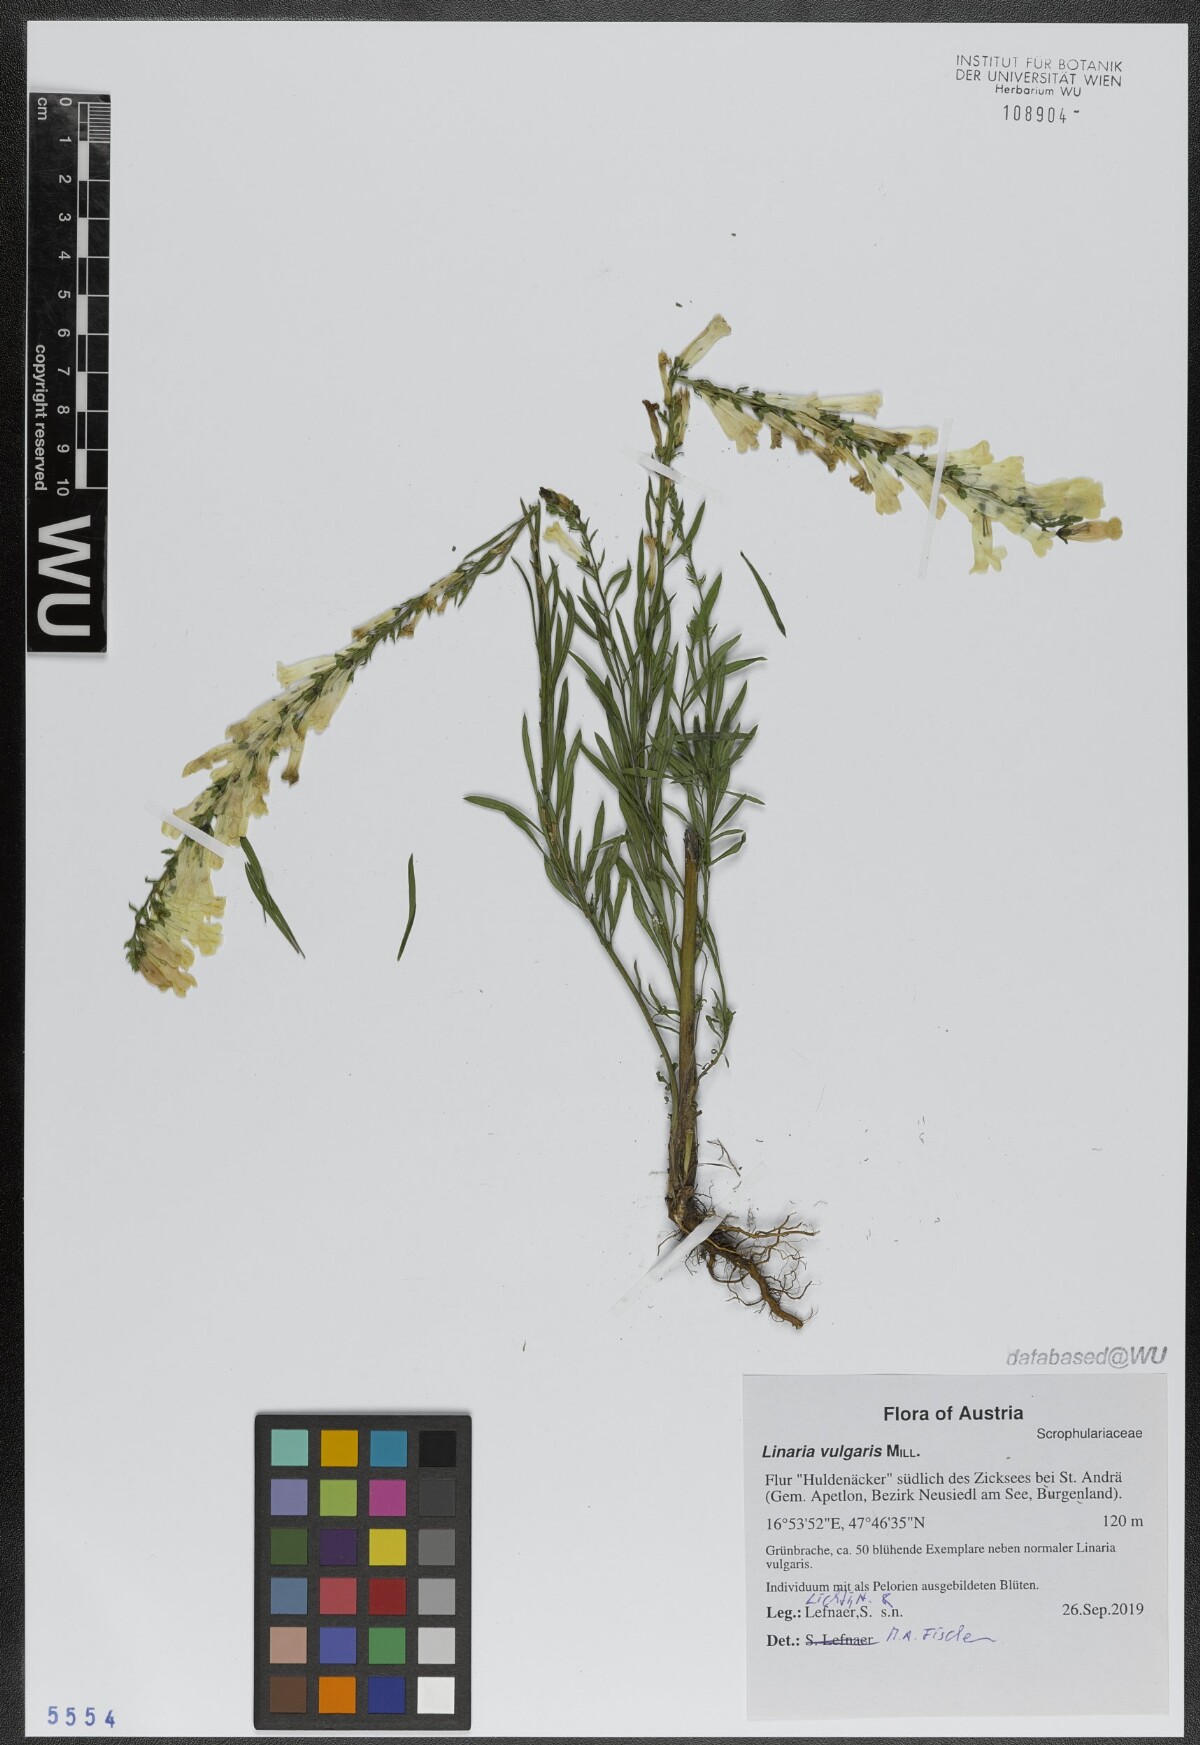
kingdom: Plantae
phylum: Tracheophyta
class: Magnoliopsida
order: Lamiales
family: Plantaginaceae
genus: Linaria
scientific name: Linaria vulgaris
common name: Butter and eggs
